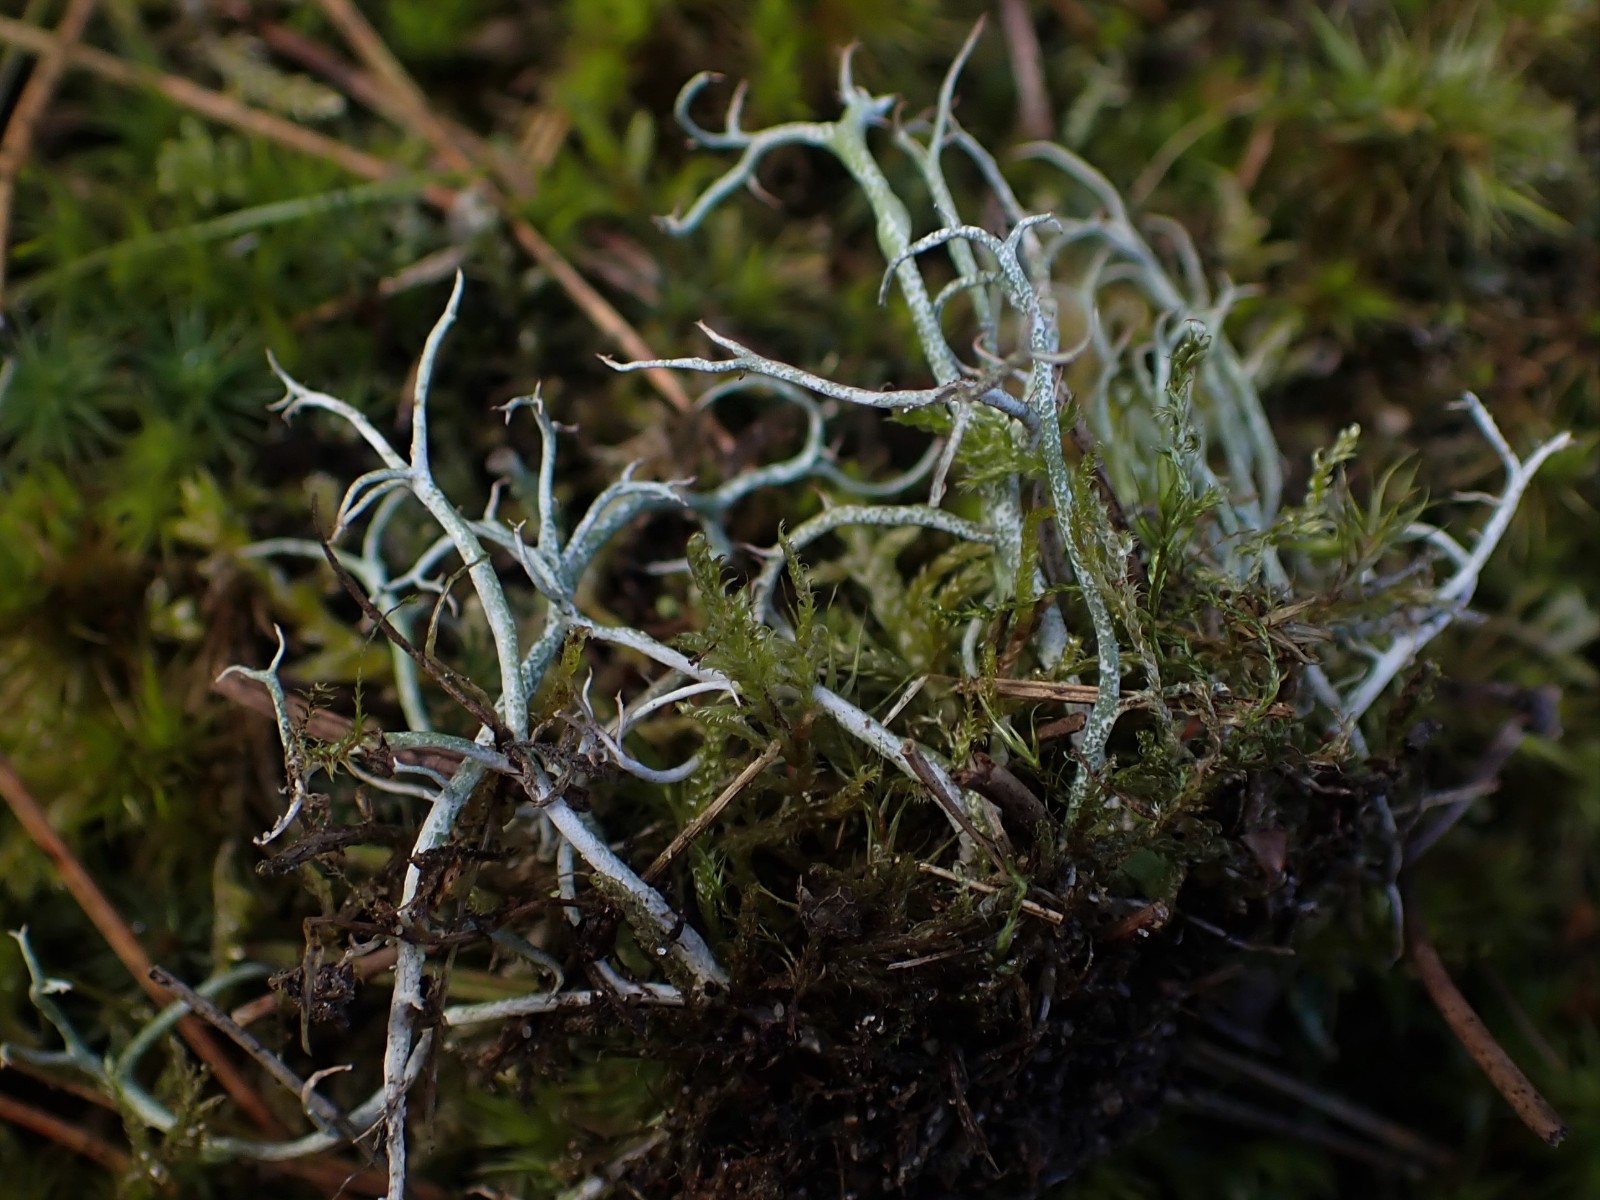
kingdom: Fungi
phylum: Ascomycota
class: Lecanoromycetes
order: Lecanorales
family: Cladoniaceae
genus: Cladonia
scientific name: Cladonia furcata
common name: kløftet bægerlav
